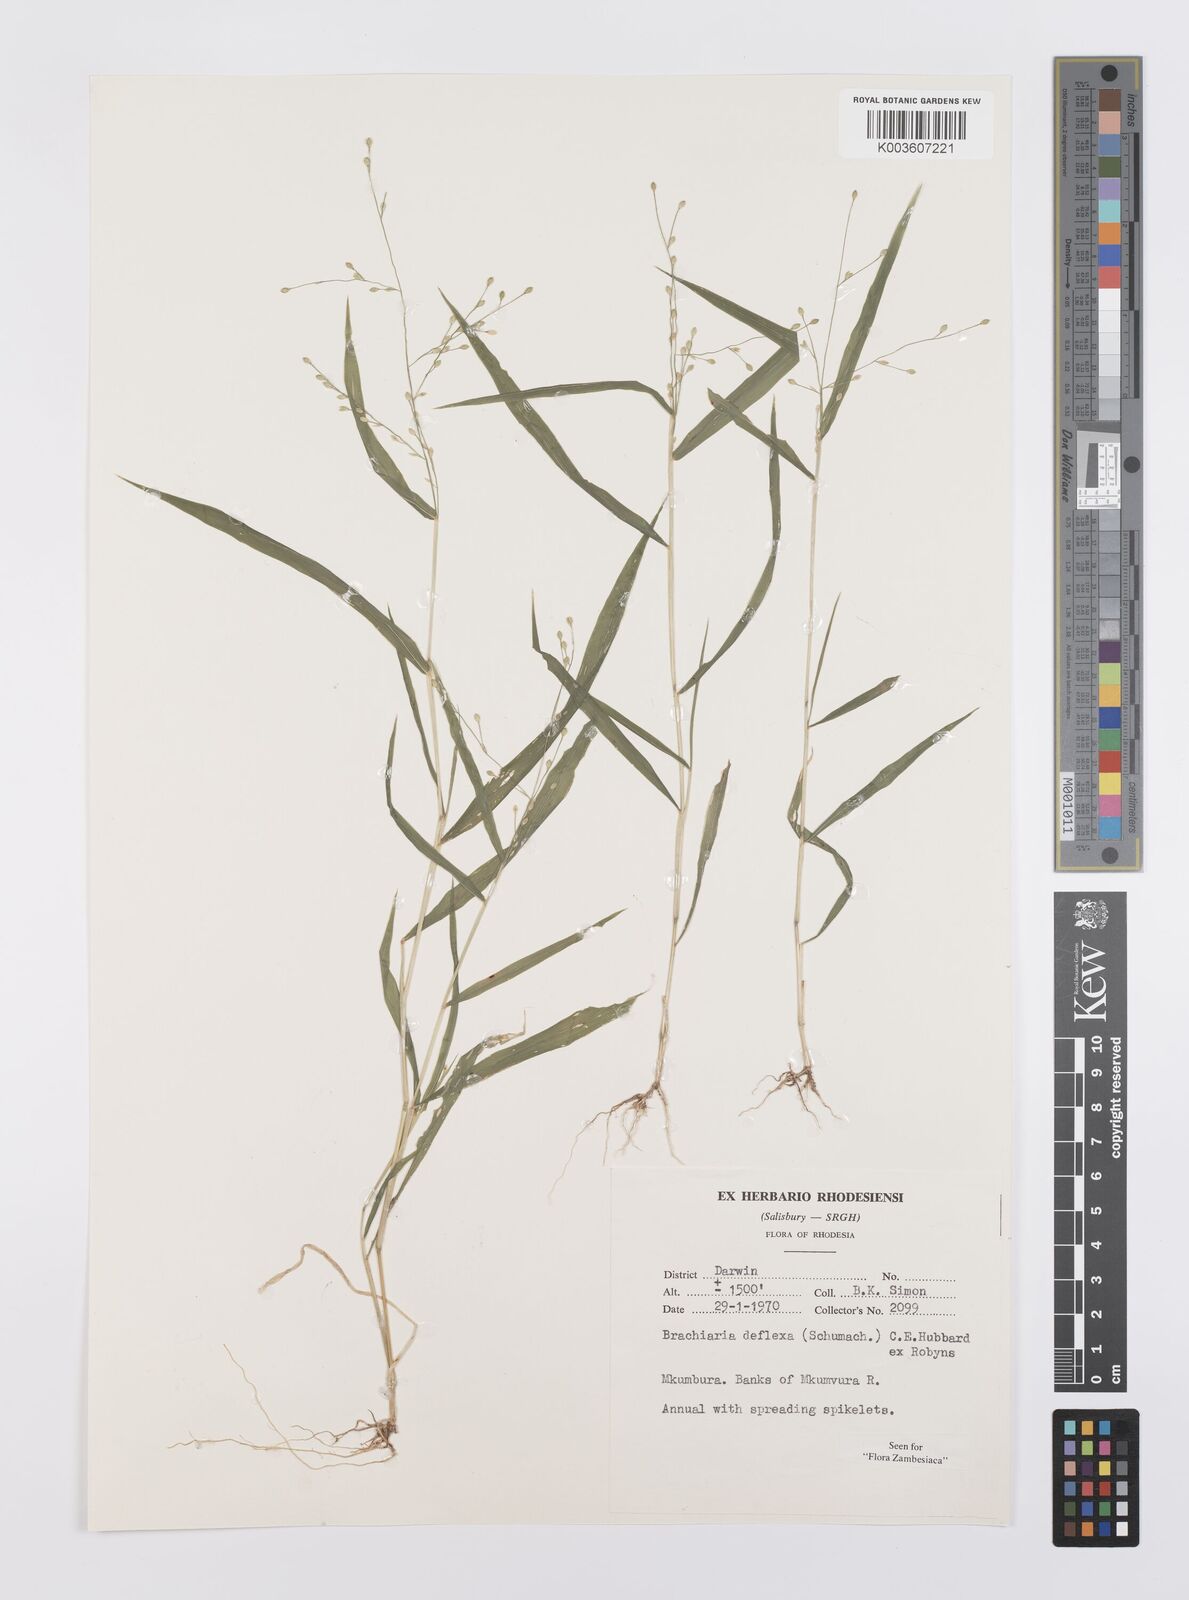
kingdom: Plantae
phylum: Tracheophyta
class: Liliopsida
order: Poales
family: Poaceae
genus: Urochloa
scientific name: Urochloa deflexa
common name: Guinea millet
